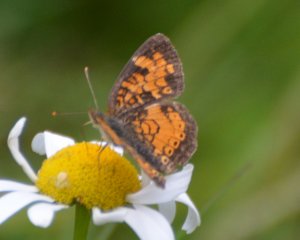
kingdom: Animalia
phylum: Arthropoda
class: Insecta
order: Lepidoptera
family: Nymphalidae
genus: Phyciodes
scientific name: Phyciodes tharos
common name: Northern Crescent
